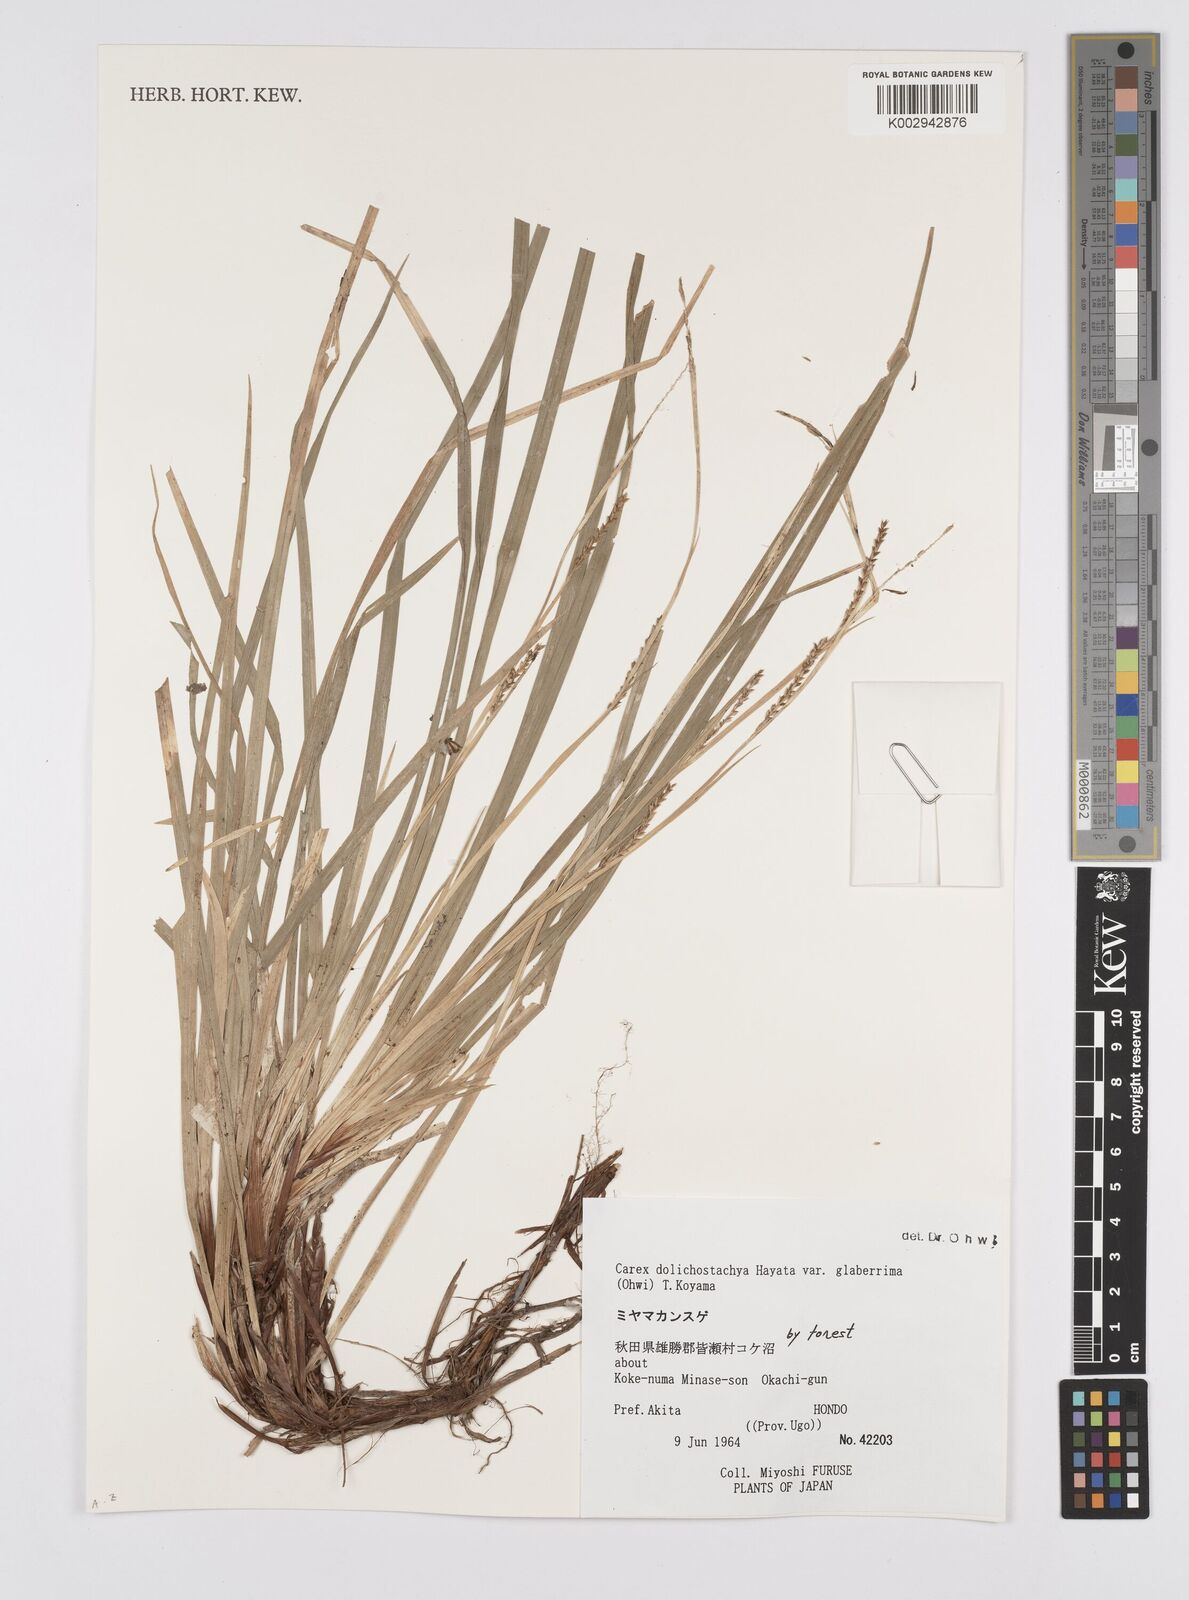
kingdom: Plantae
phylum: Tracheophyta
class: Liliopsida
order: Poales
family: Cyperaceae
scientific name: Cyperaceae
